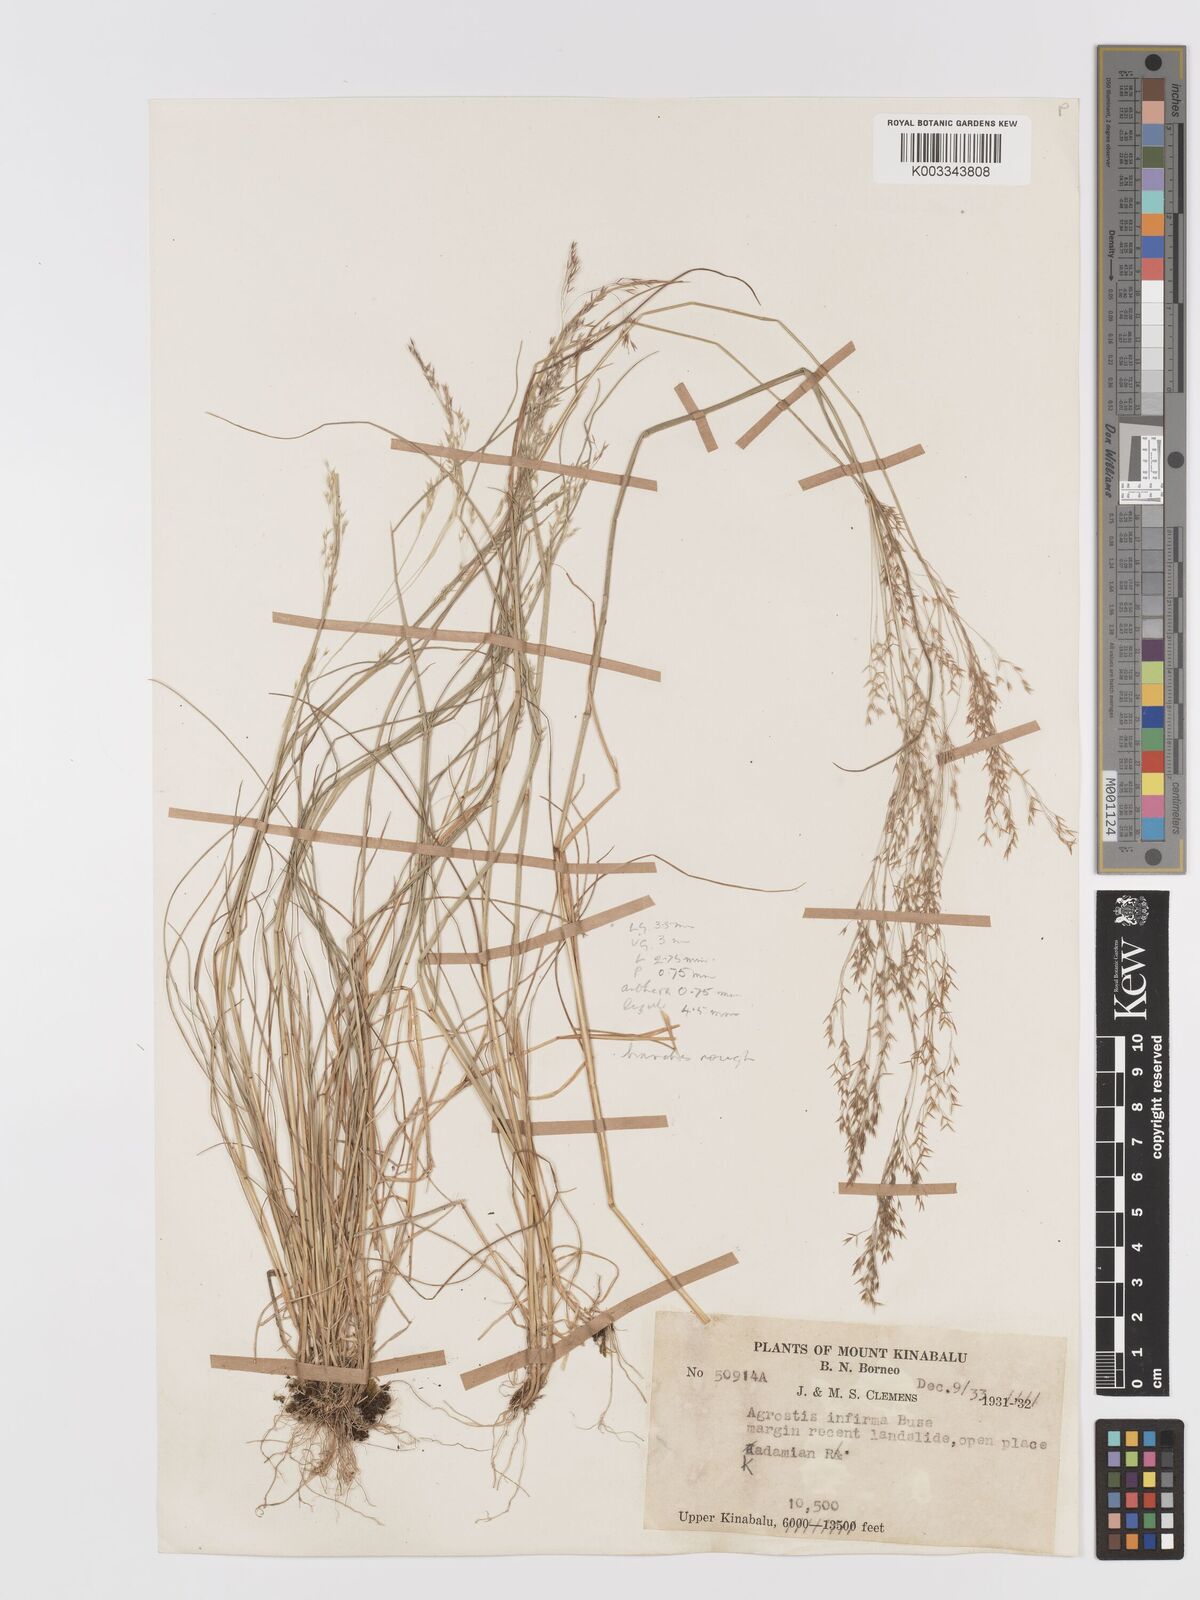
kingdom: Plantae
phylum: Tracheophyta
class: Liliopsida
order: Poales
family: Poaceae
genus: Agrostis
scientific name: Agrostis infirma
